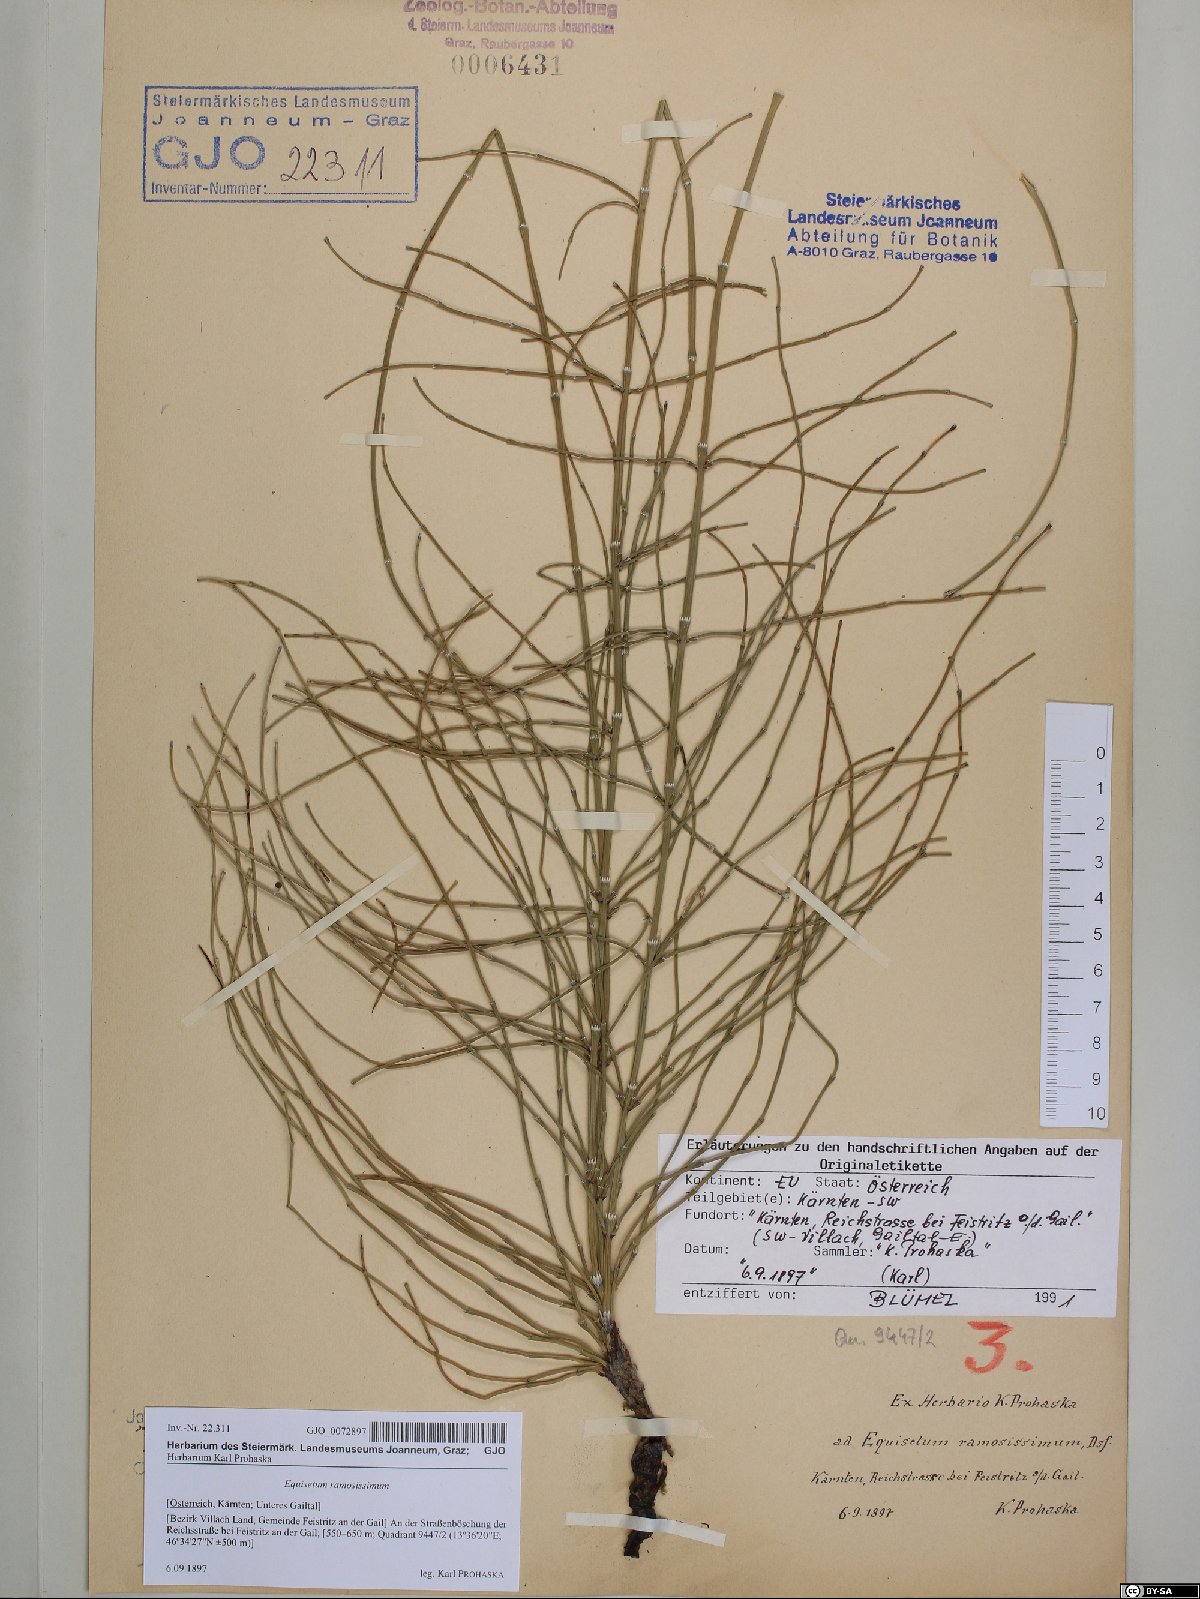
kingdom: Plantae
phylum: Tracheophyta
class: Polypodiopsida
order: Equisetales
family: Equisetaceae
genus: Equisetum
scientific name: Equisetum ramosissimum
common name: Branched horsetail
